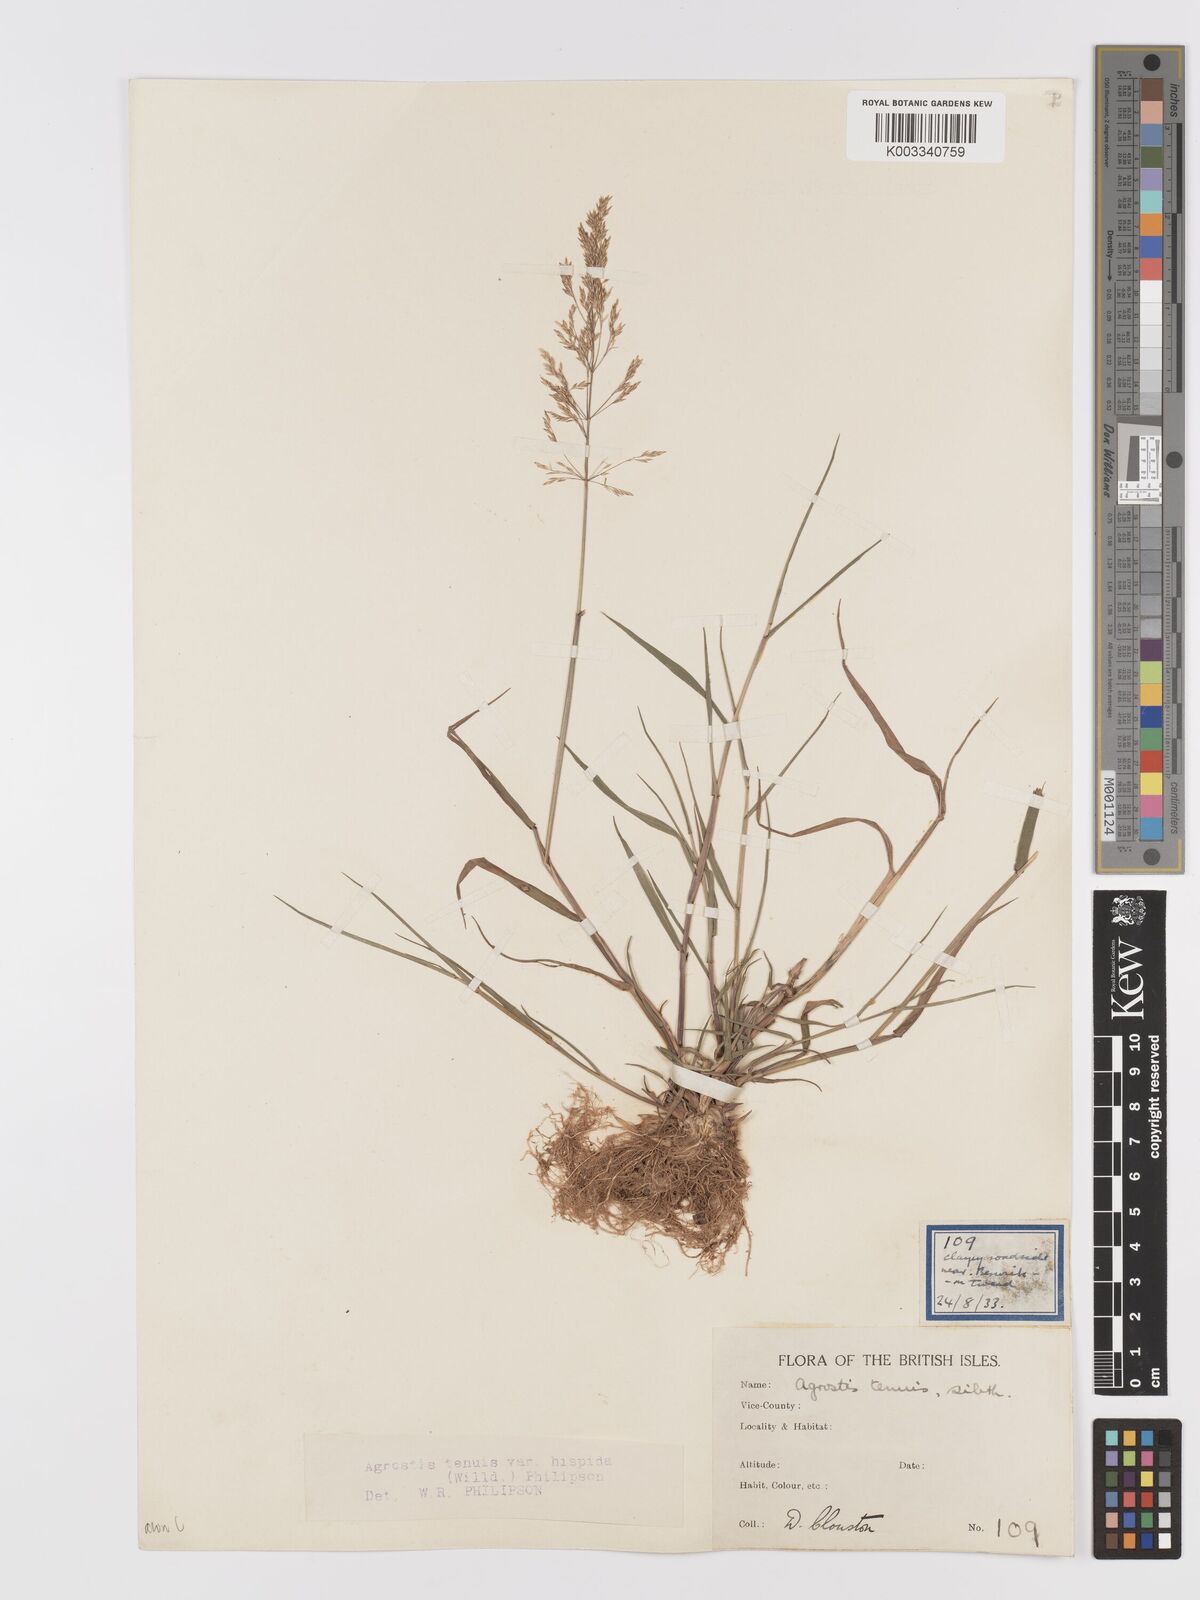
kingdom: Plantae
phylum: Tracheophyta
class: Liliopsida
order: Poales
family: Poaceae
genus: Agrostis
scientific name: Agrostis capillaris
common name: Colonial bentgrass
